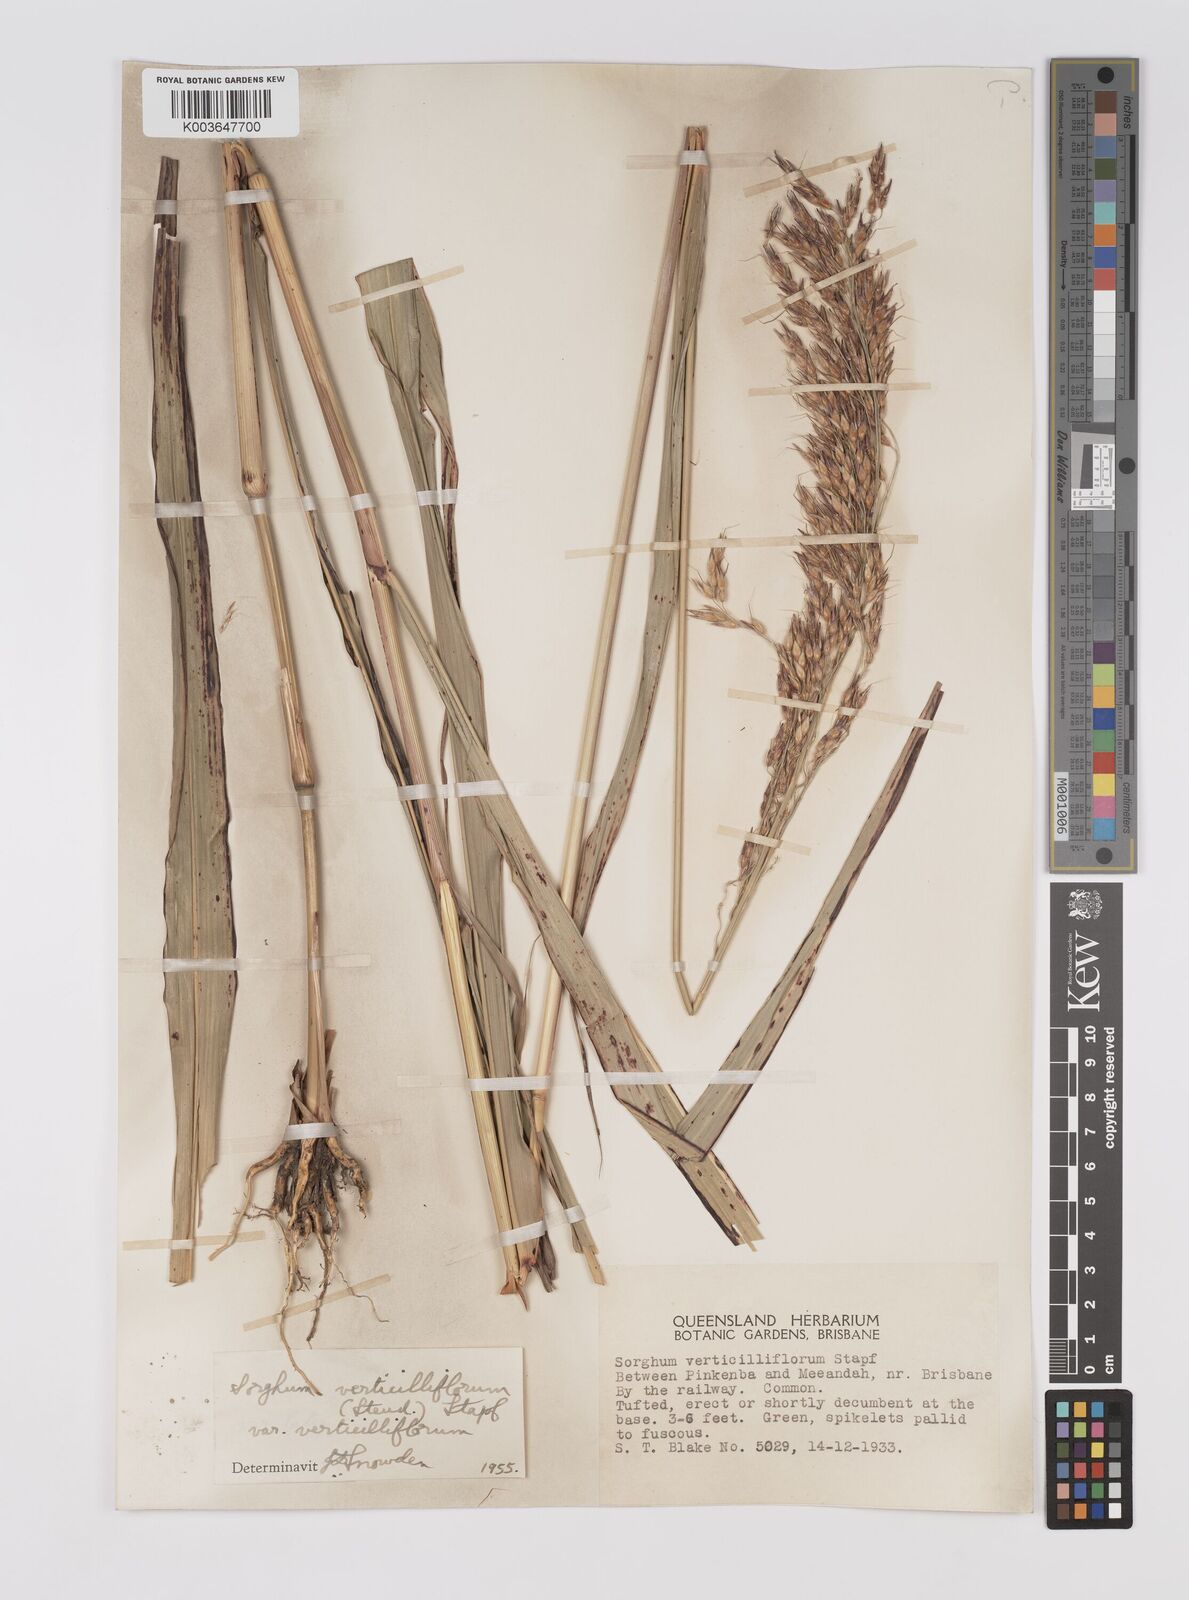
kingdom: Plantae
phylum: Tracheophyta
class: Liliopsida
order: Poales
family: Poaceae
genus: Sorghum
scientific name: Sorghum arundinaceum
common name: Sorghum
